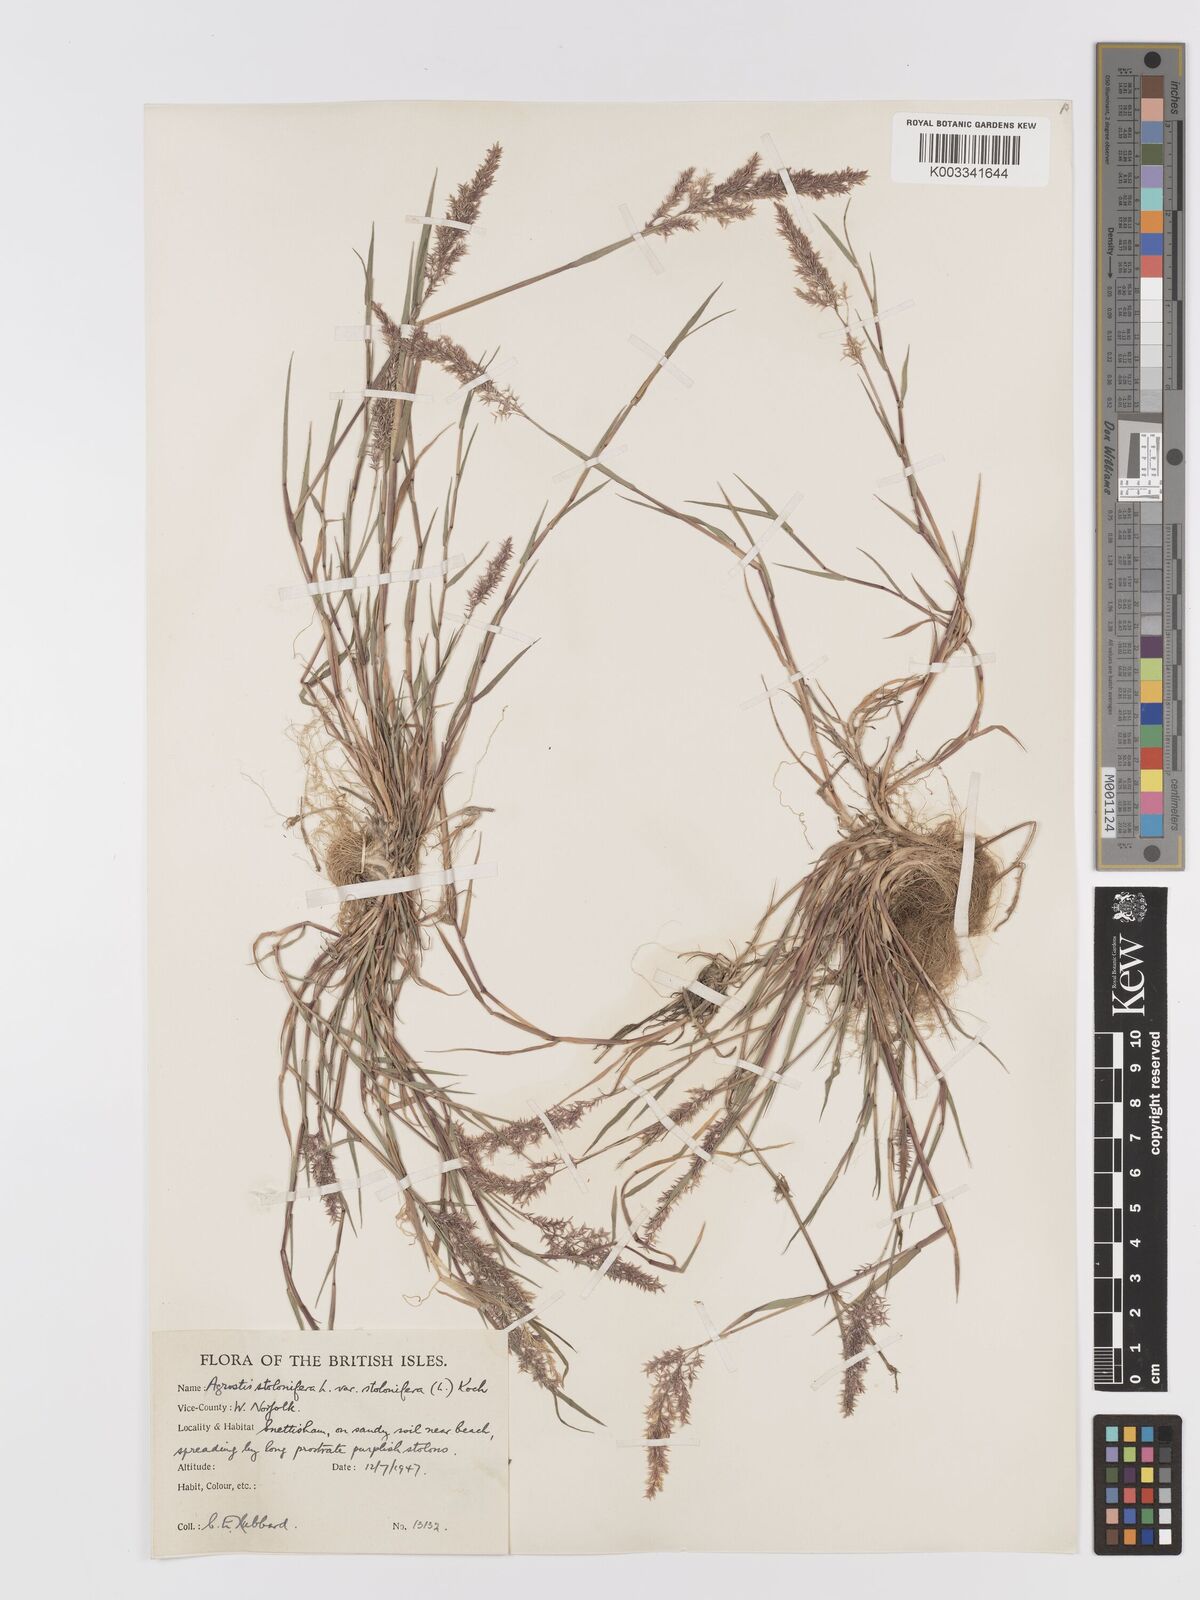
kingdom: Plantae
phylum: Tracheophyta
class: Liliopsida
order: Poales
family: Poaceae
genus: Agrostis
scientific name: Agrostis stolonifera
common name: Creeping bentgrass
